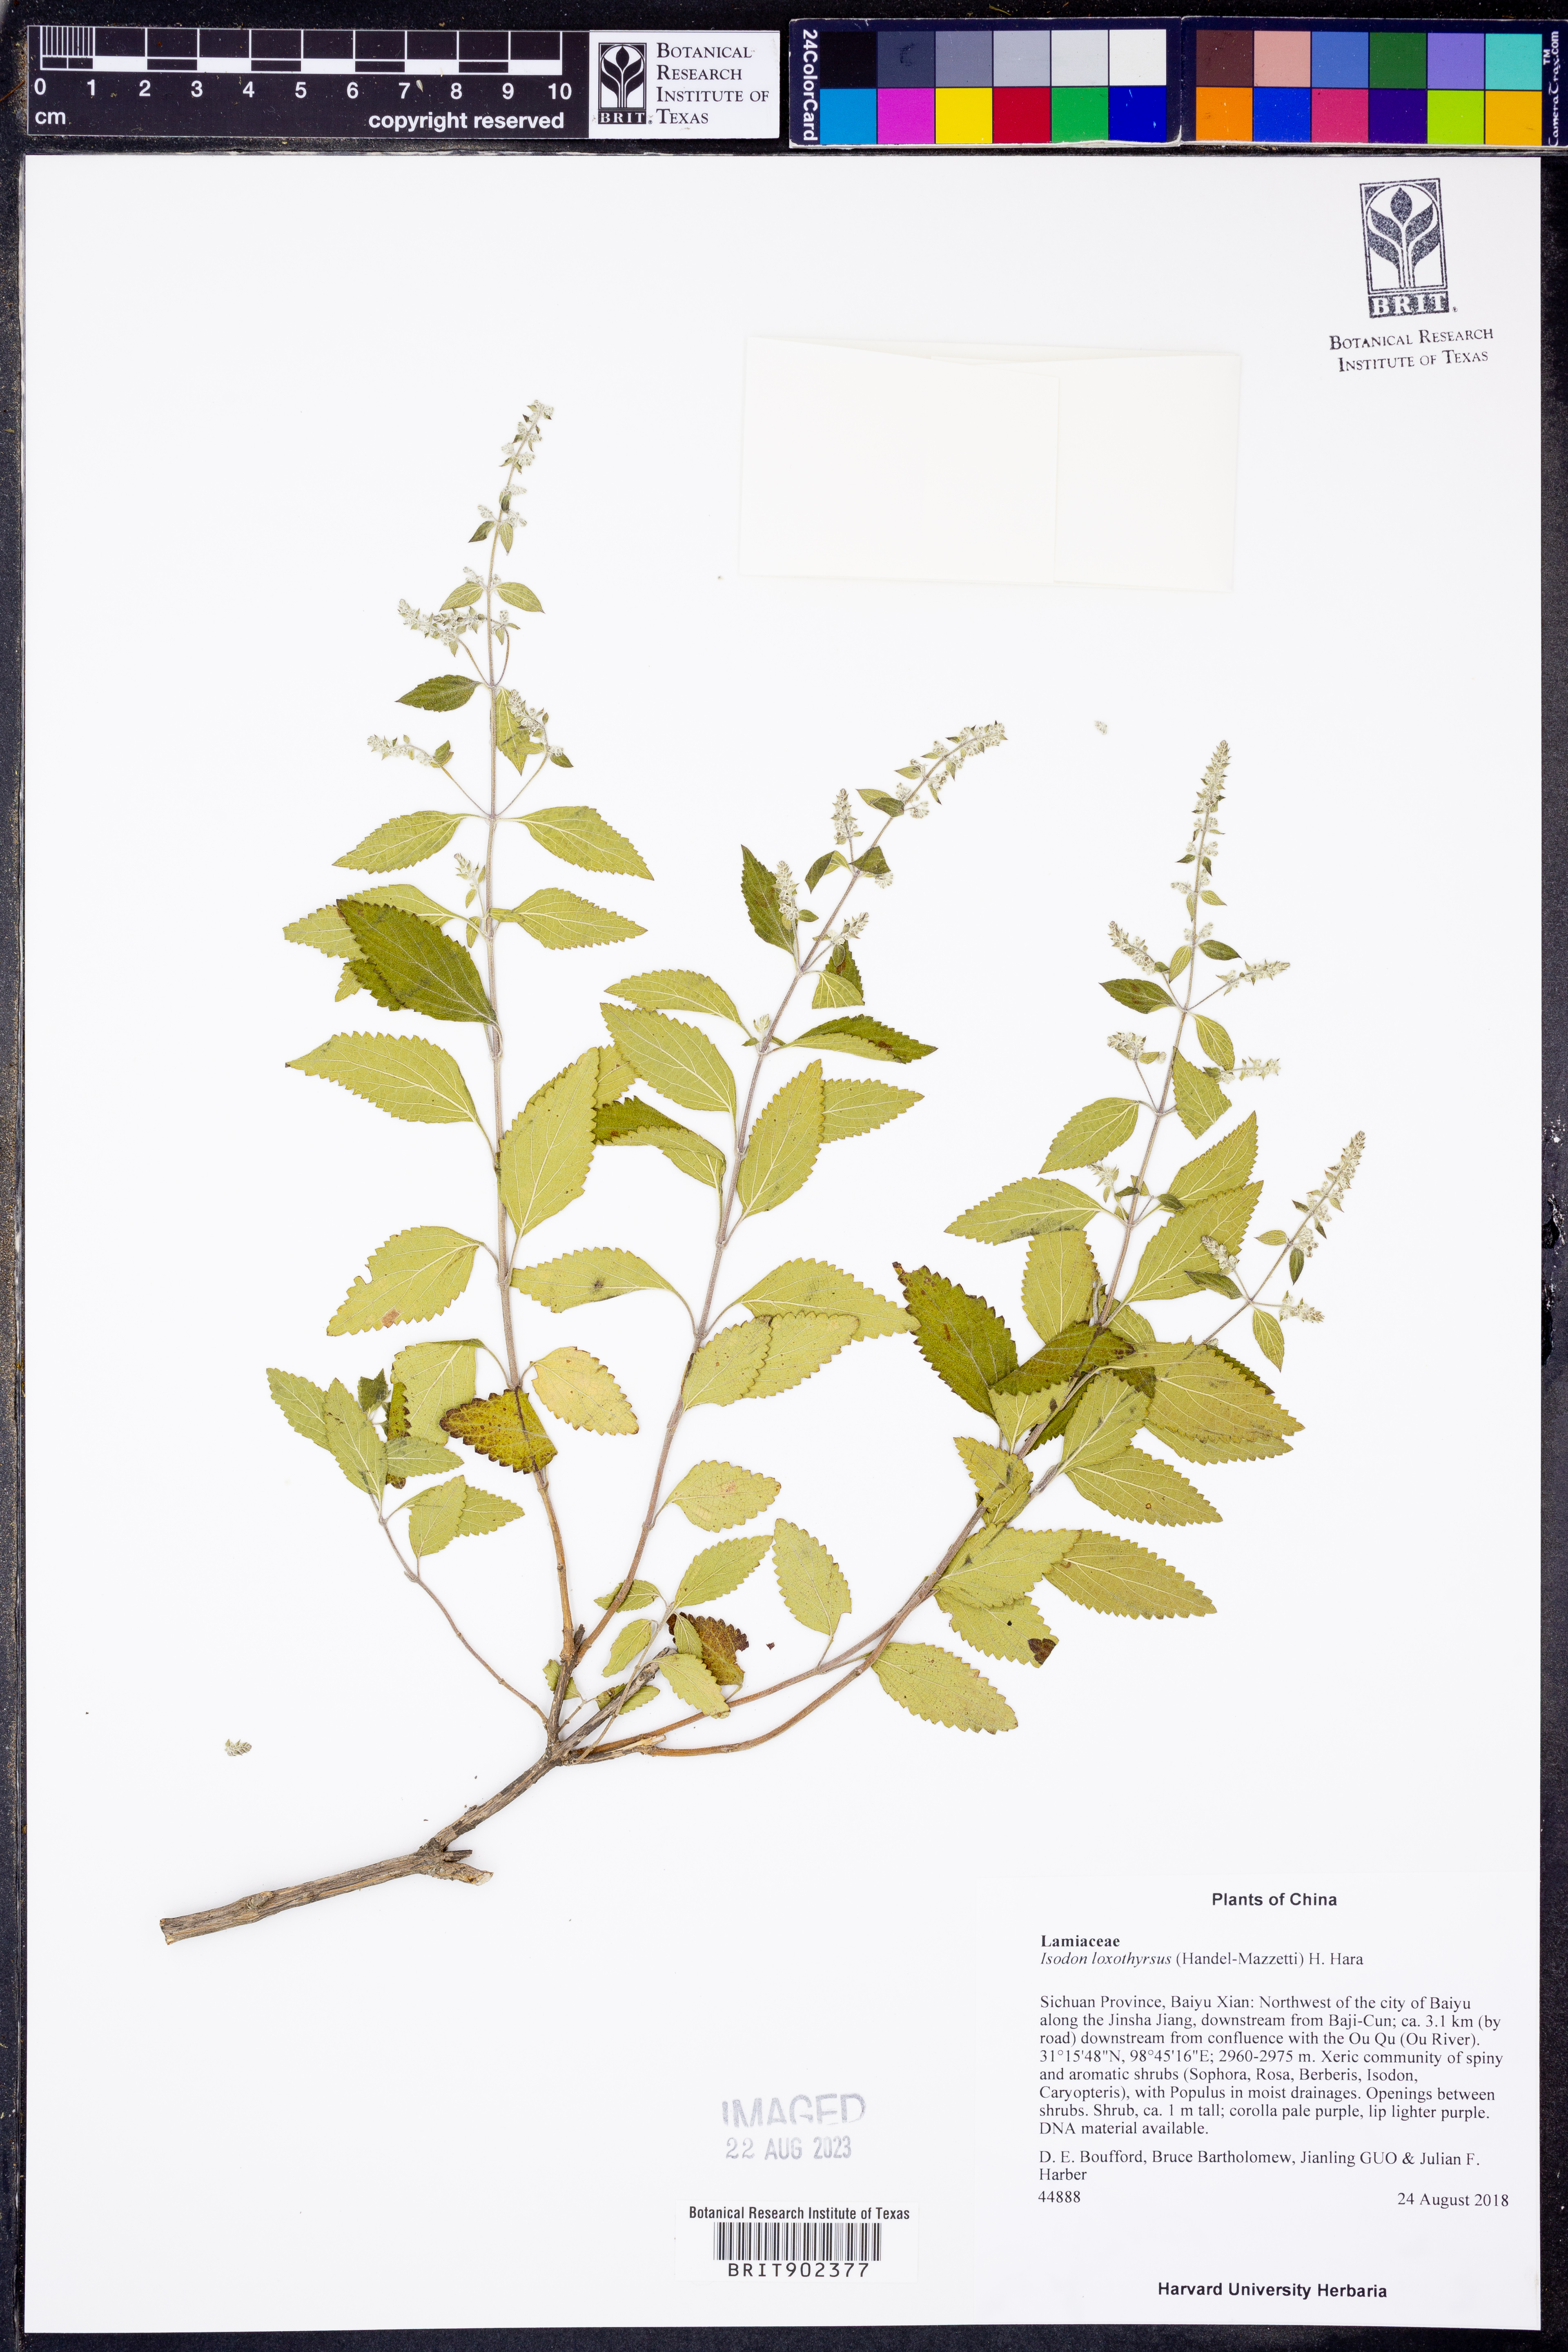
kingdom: Plantae
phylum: Tracheophyta
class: Magnoliopsida
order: Lamiales
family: Lamiaceae
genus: Isodon
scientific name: Isodon
